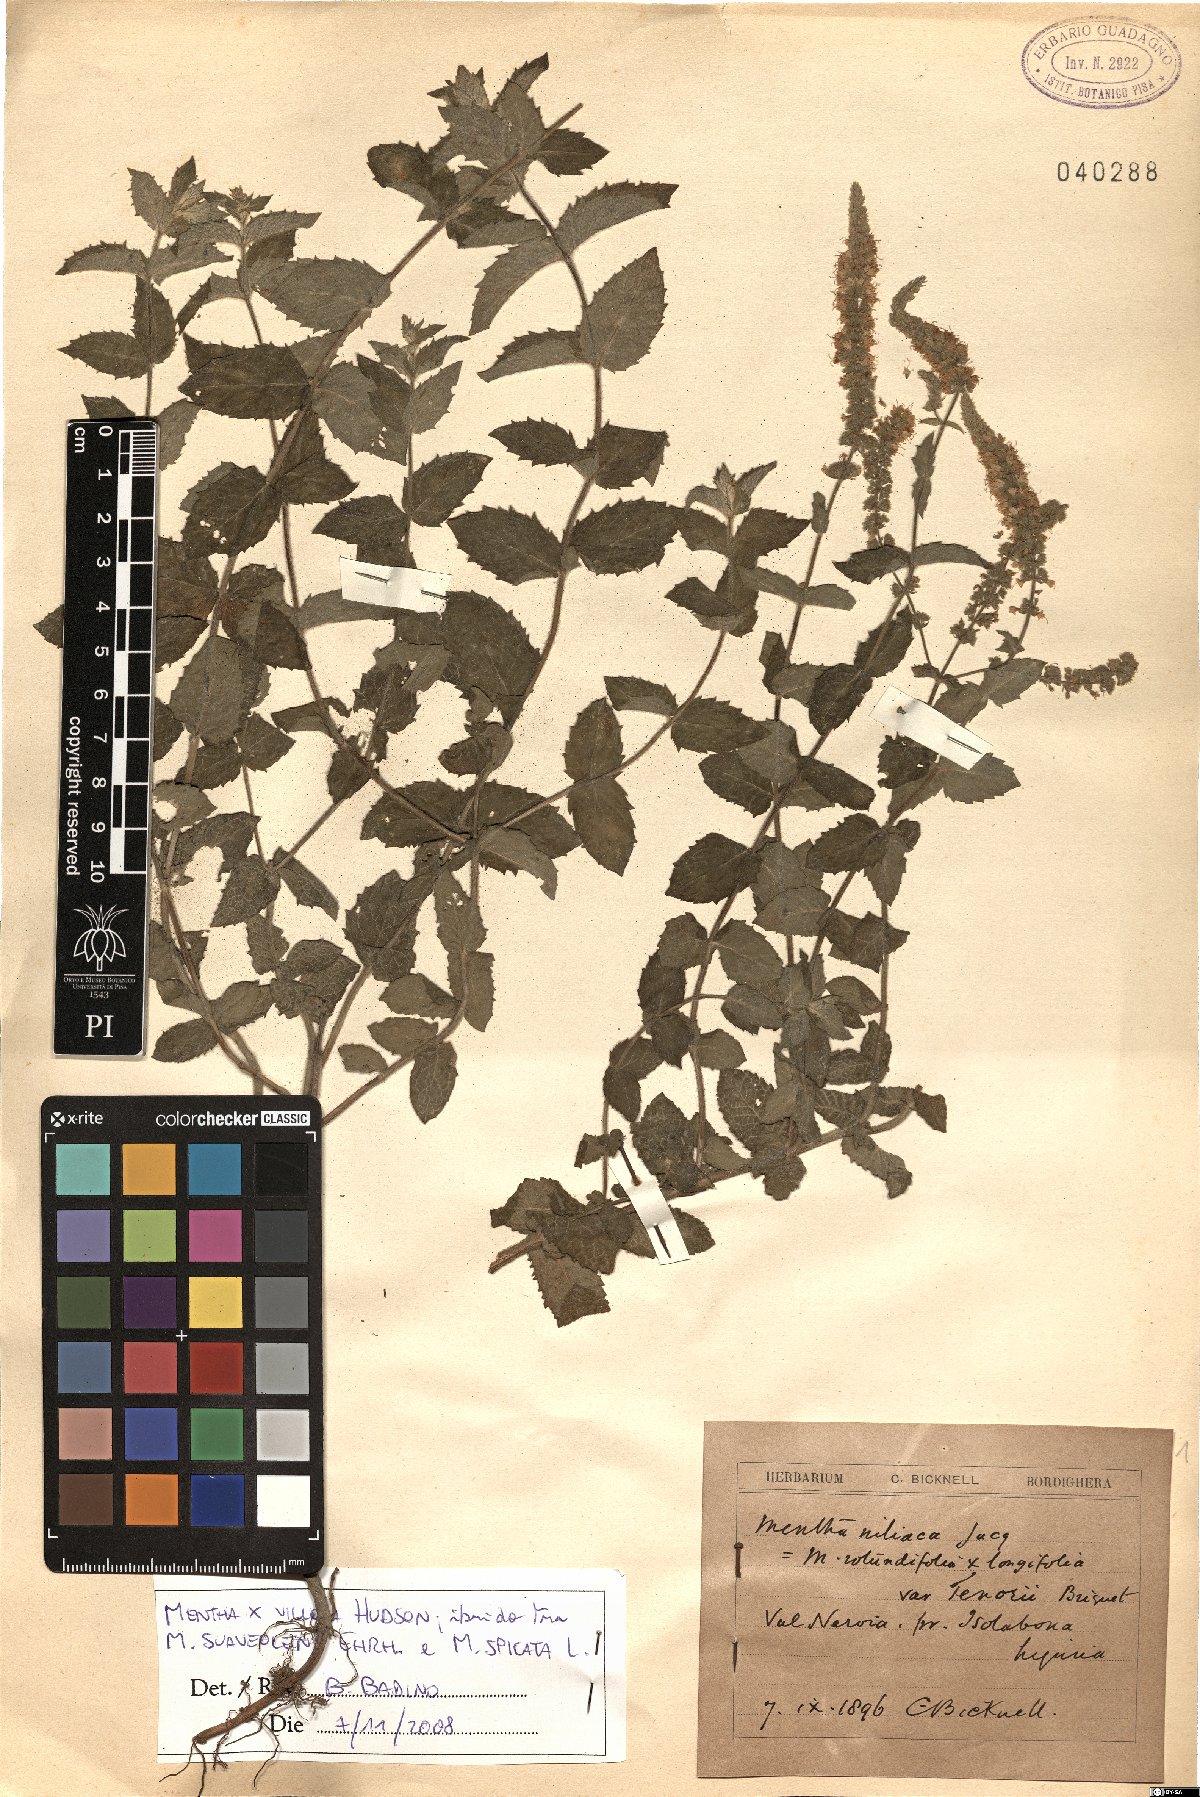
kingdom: Plantae
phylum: Tracheophyta
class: Magnoliopsida
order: Lamiales
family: Lamiaceae
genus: Mentha
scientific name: Mentha villosa
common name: Apple mint
